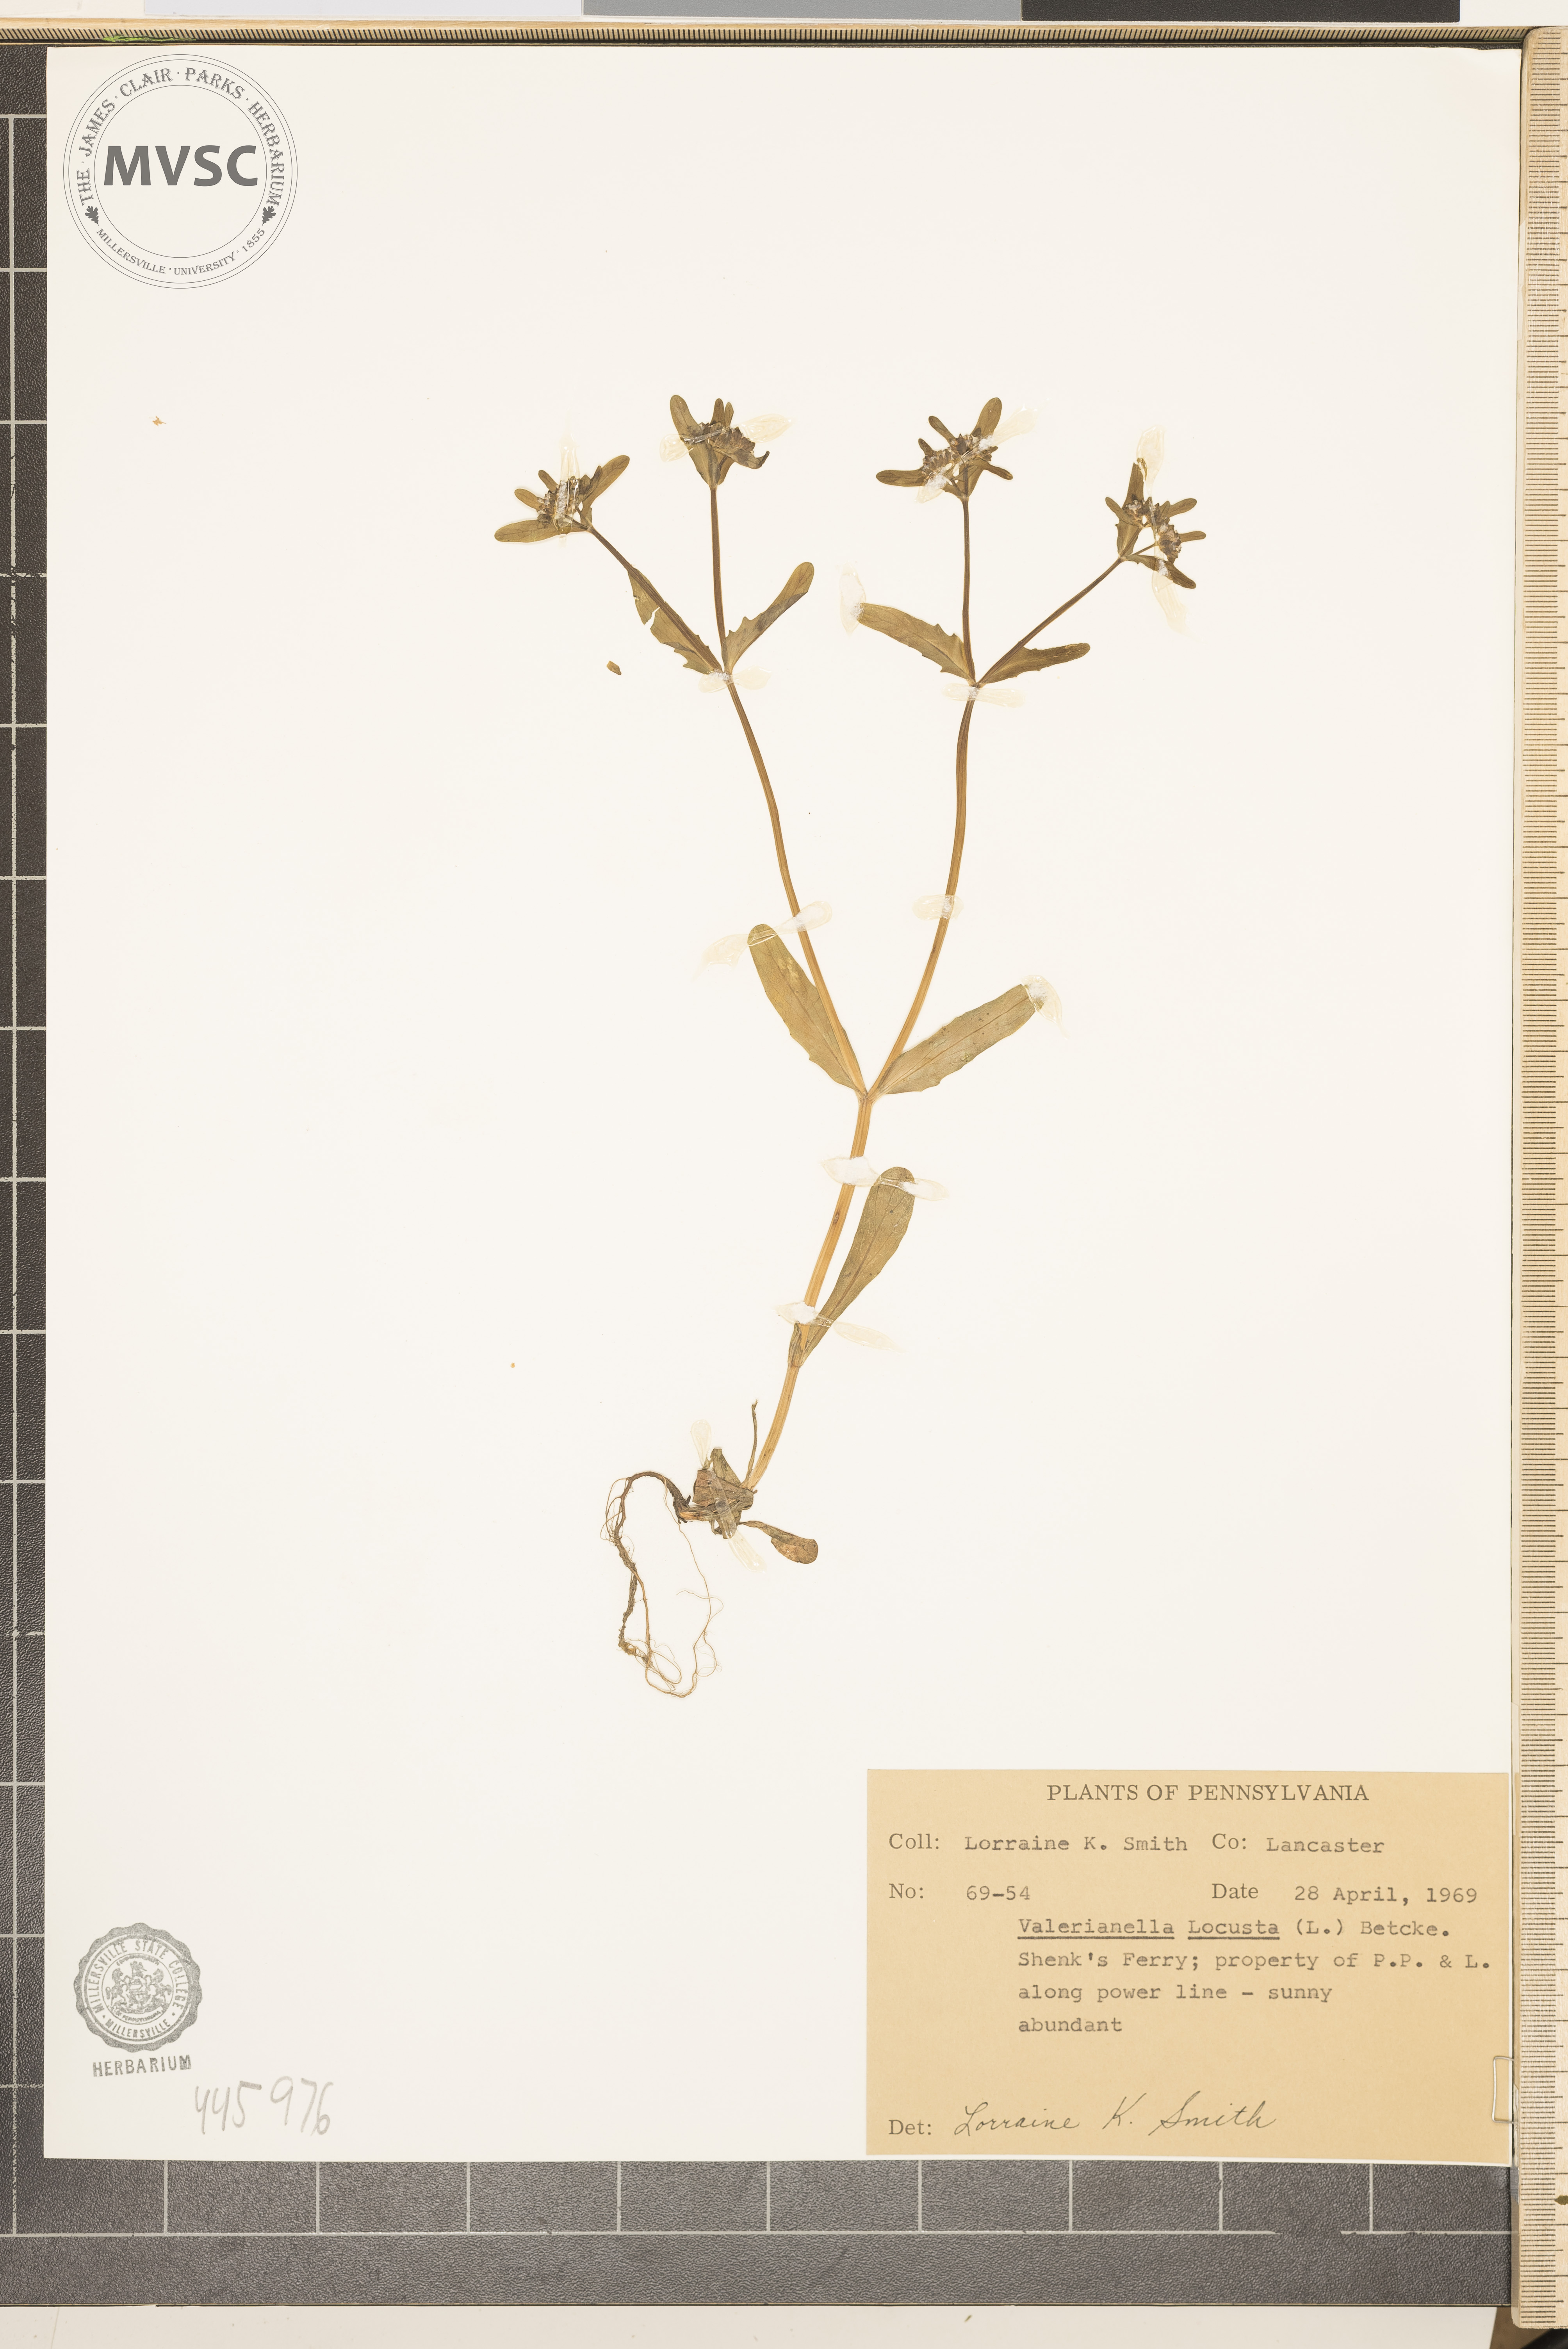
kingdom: Plantae
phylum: Tracheophyta
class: Magnoliopsida
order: Dipsacales
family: Caprifoliaceae
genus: Valerianella
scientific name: Valerianella locusta
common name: Common cornsalad
